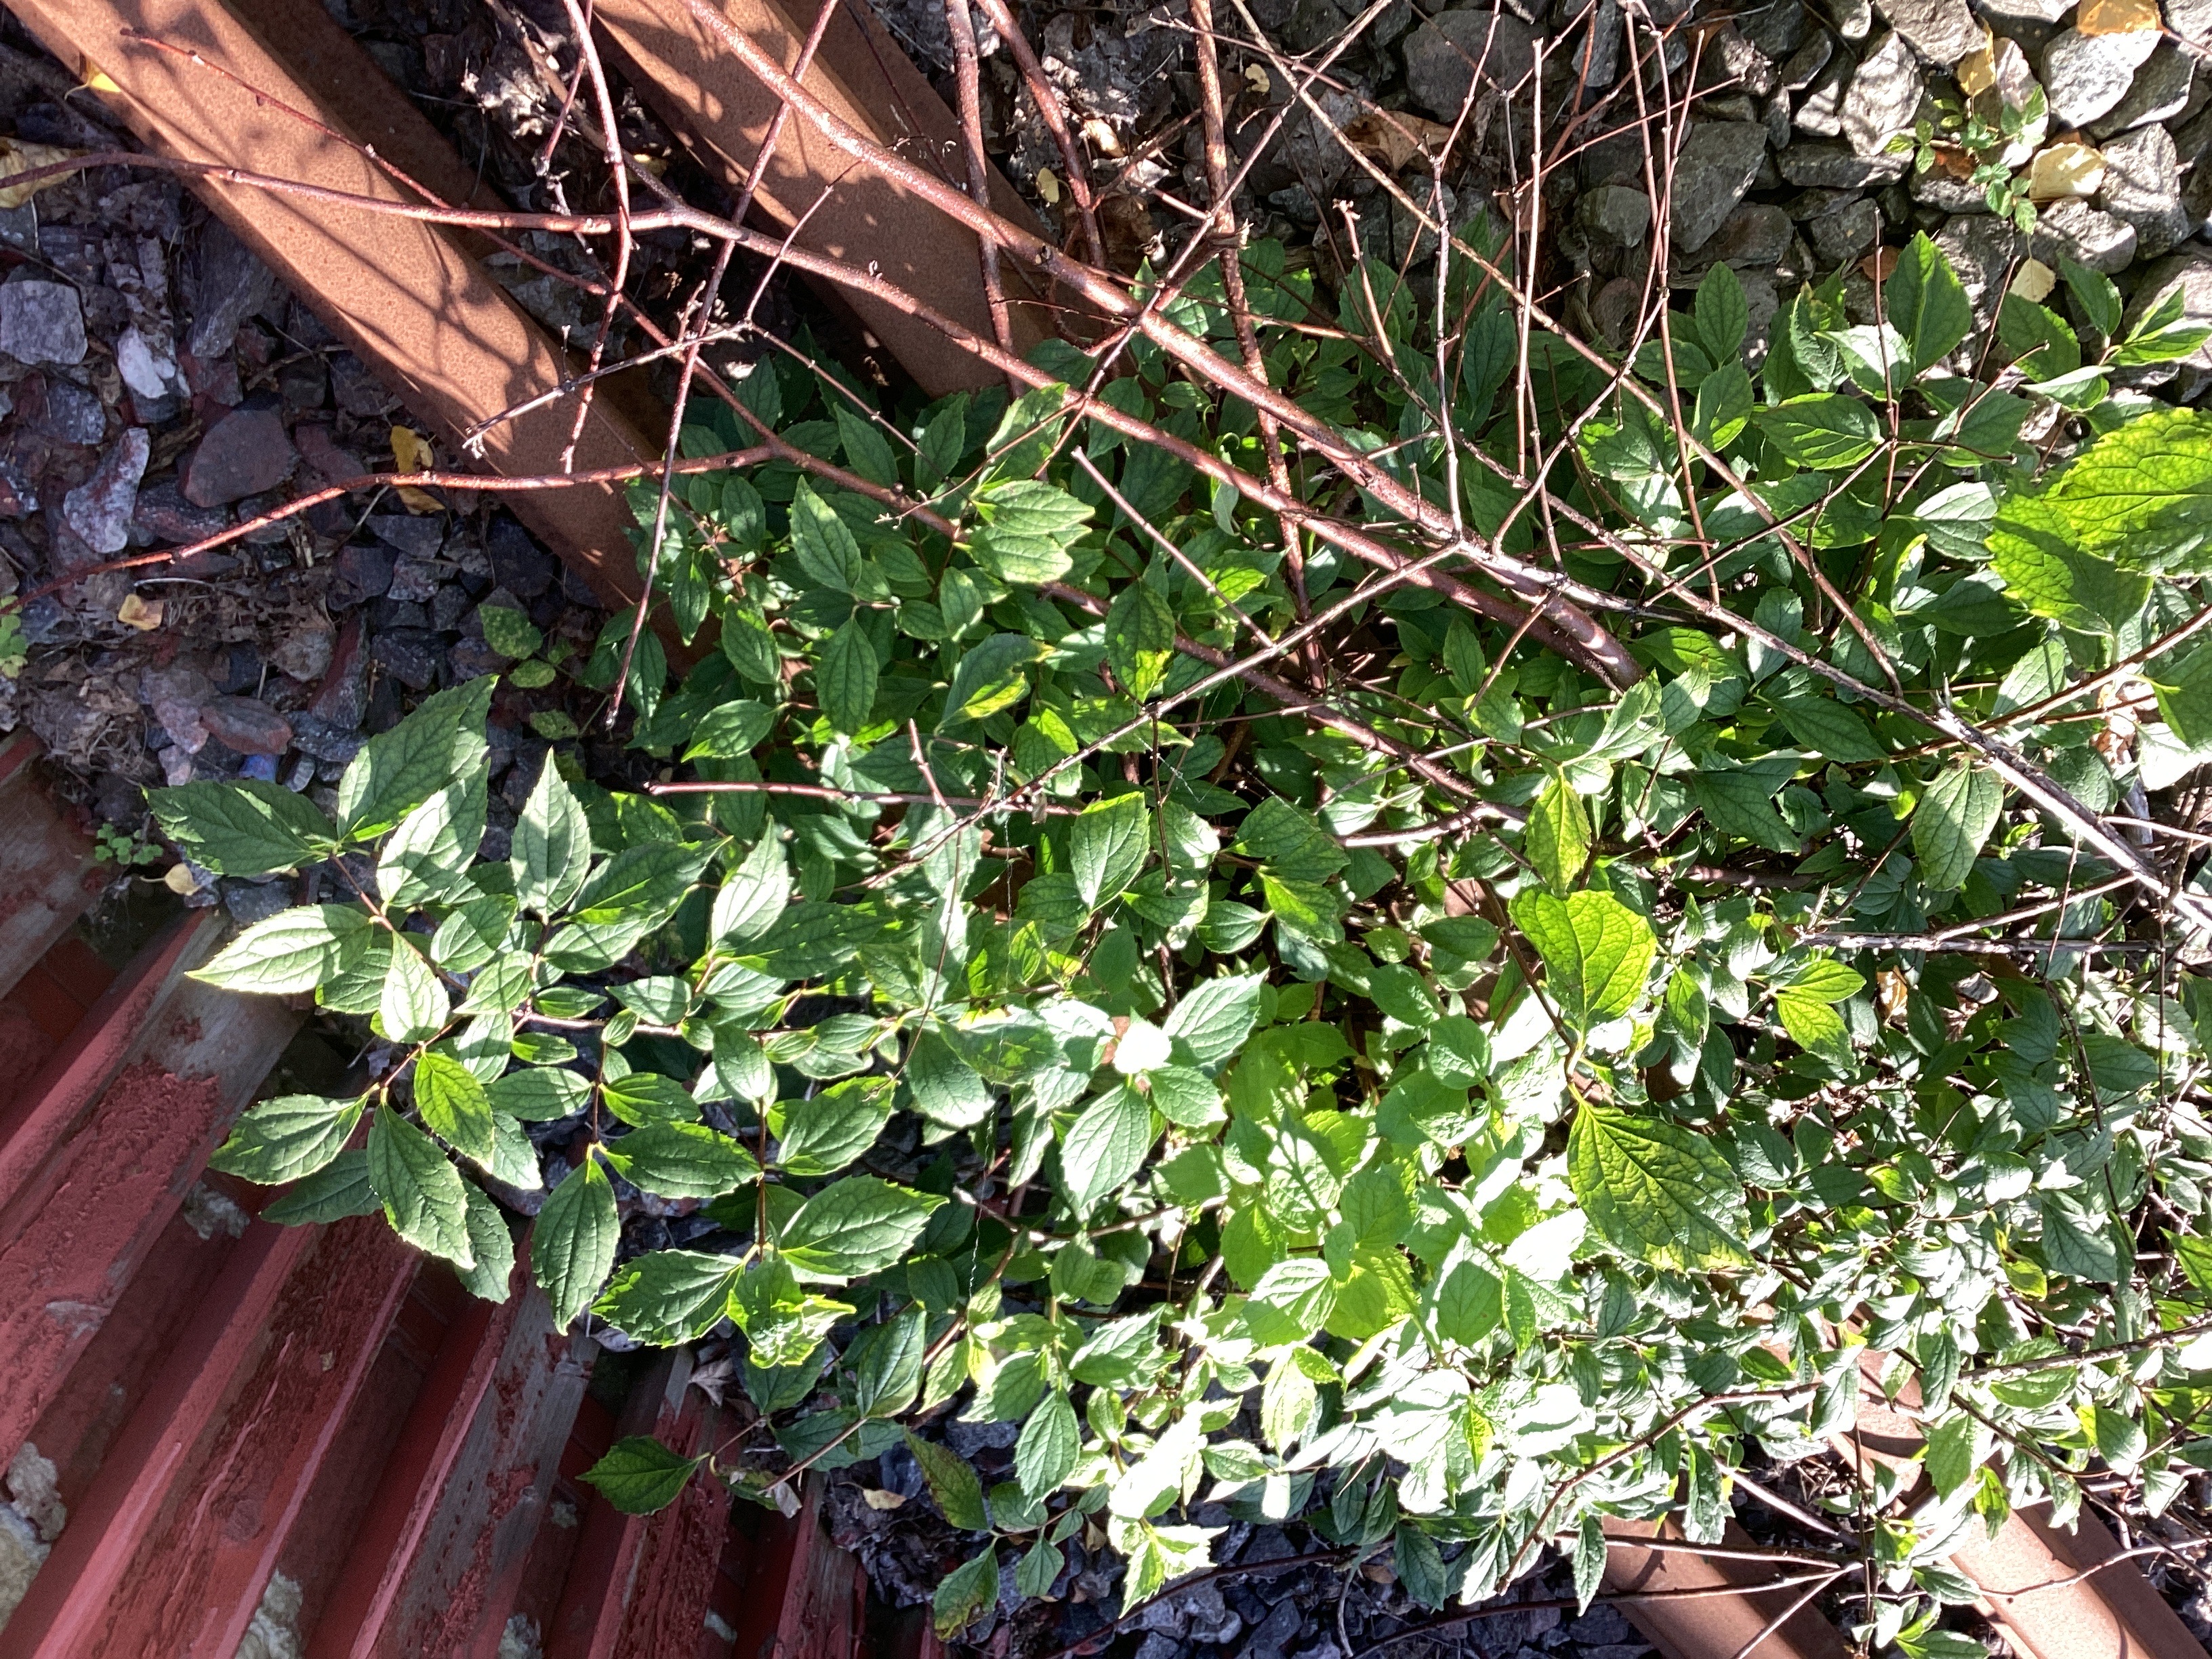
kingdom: Plantae
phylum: Tracheophyta
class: Magnoliopsida
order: Cornales
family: Hydrangeaceae
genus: Philadelphus
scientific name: Philadelphus coronarius
